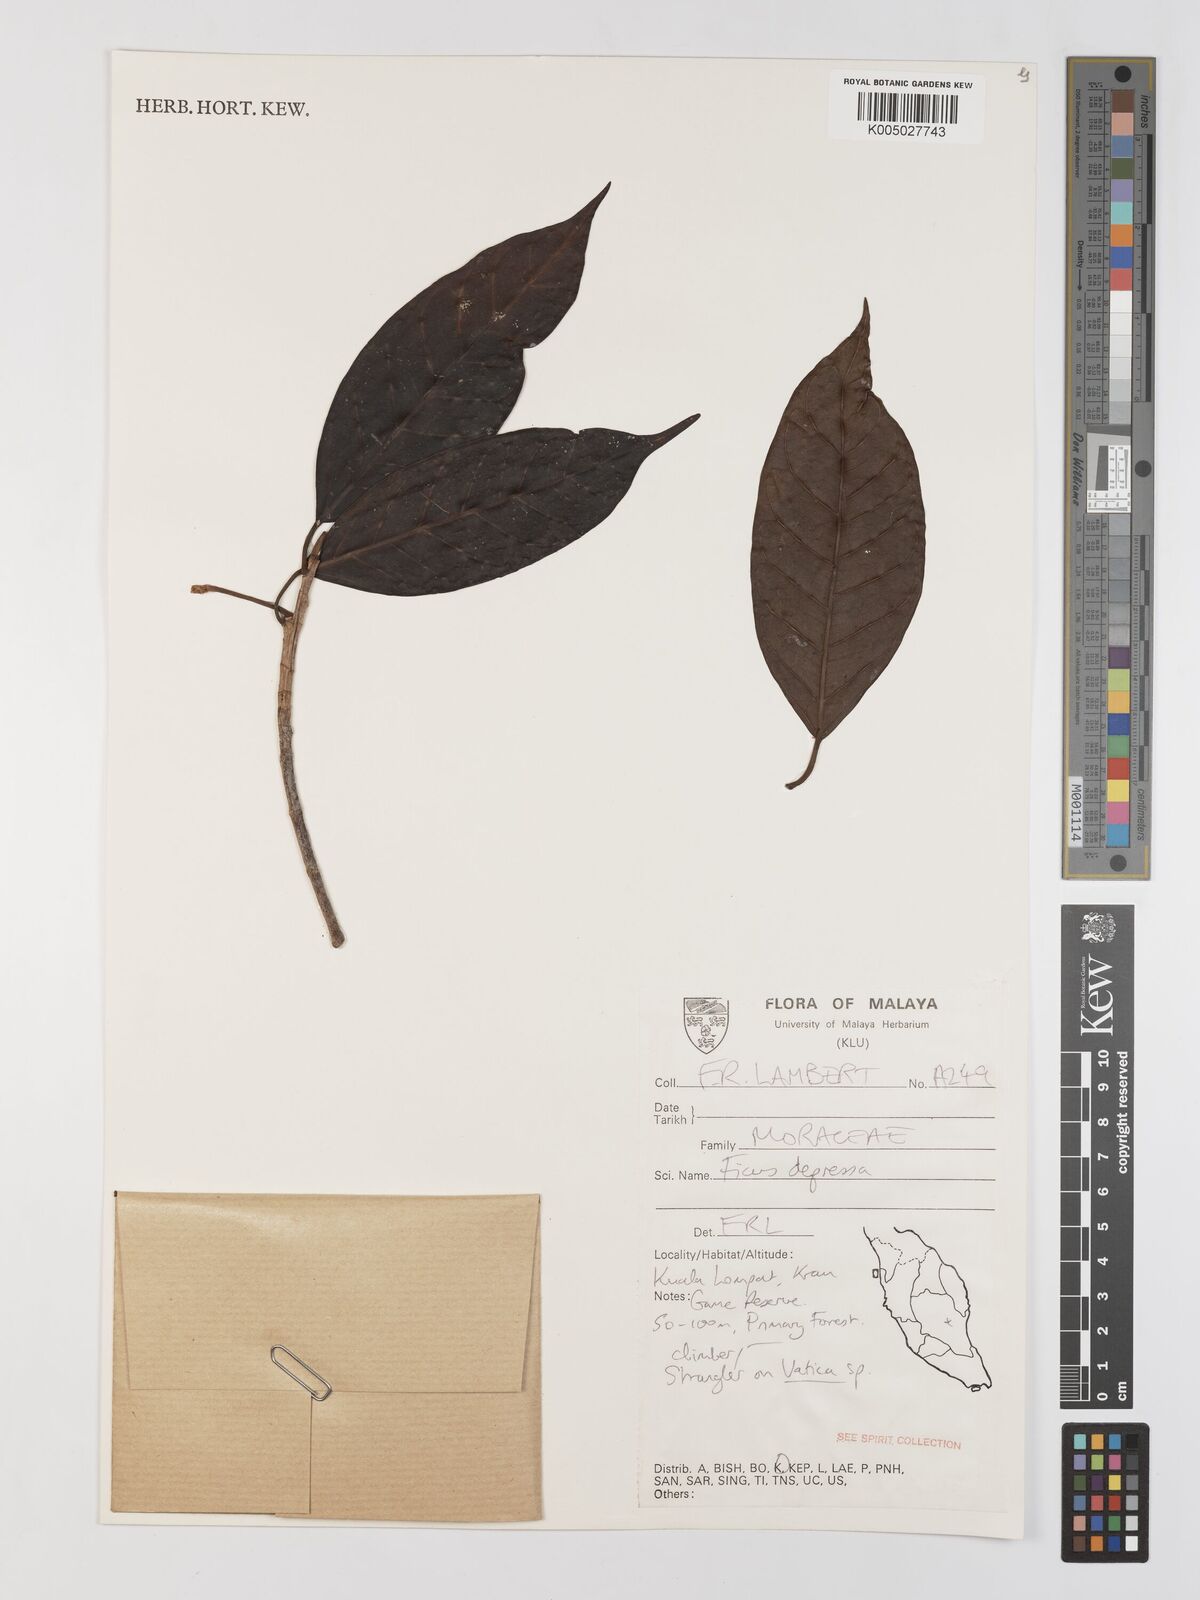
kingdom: Plantae
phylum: Tracheophyta
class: Magnoliopsida
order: Rosales
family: Moraceae
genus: Ficus
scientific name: Ficus
